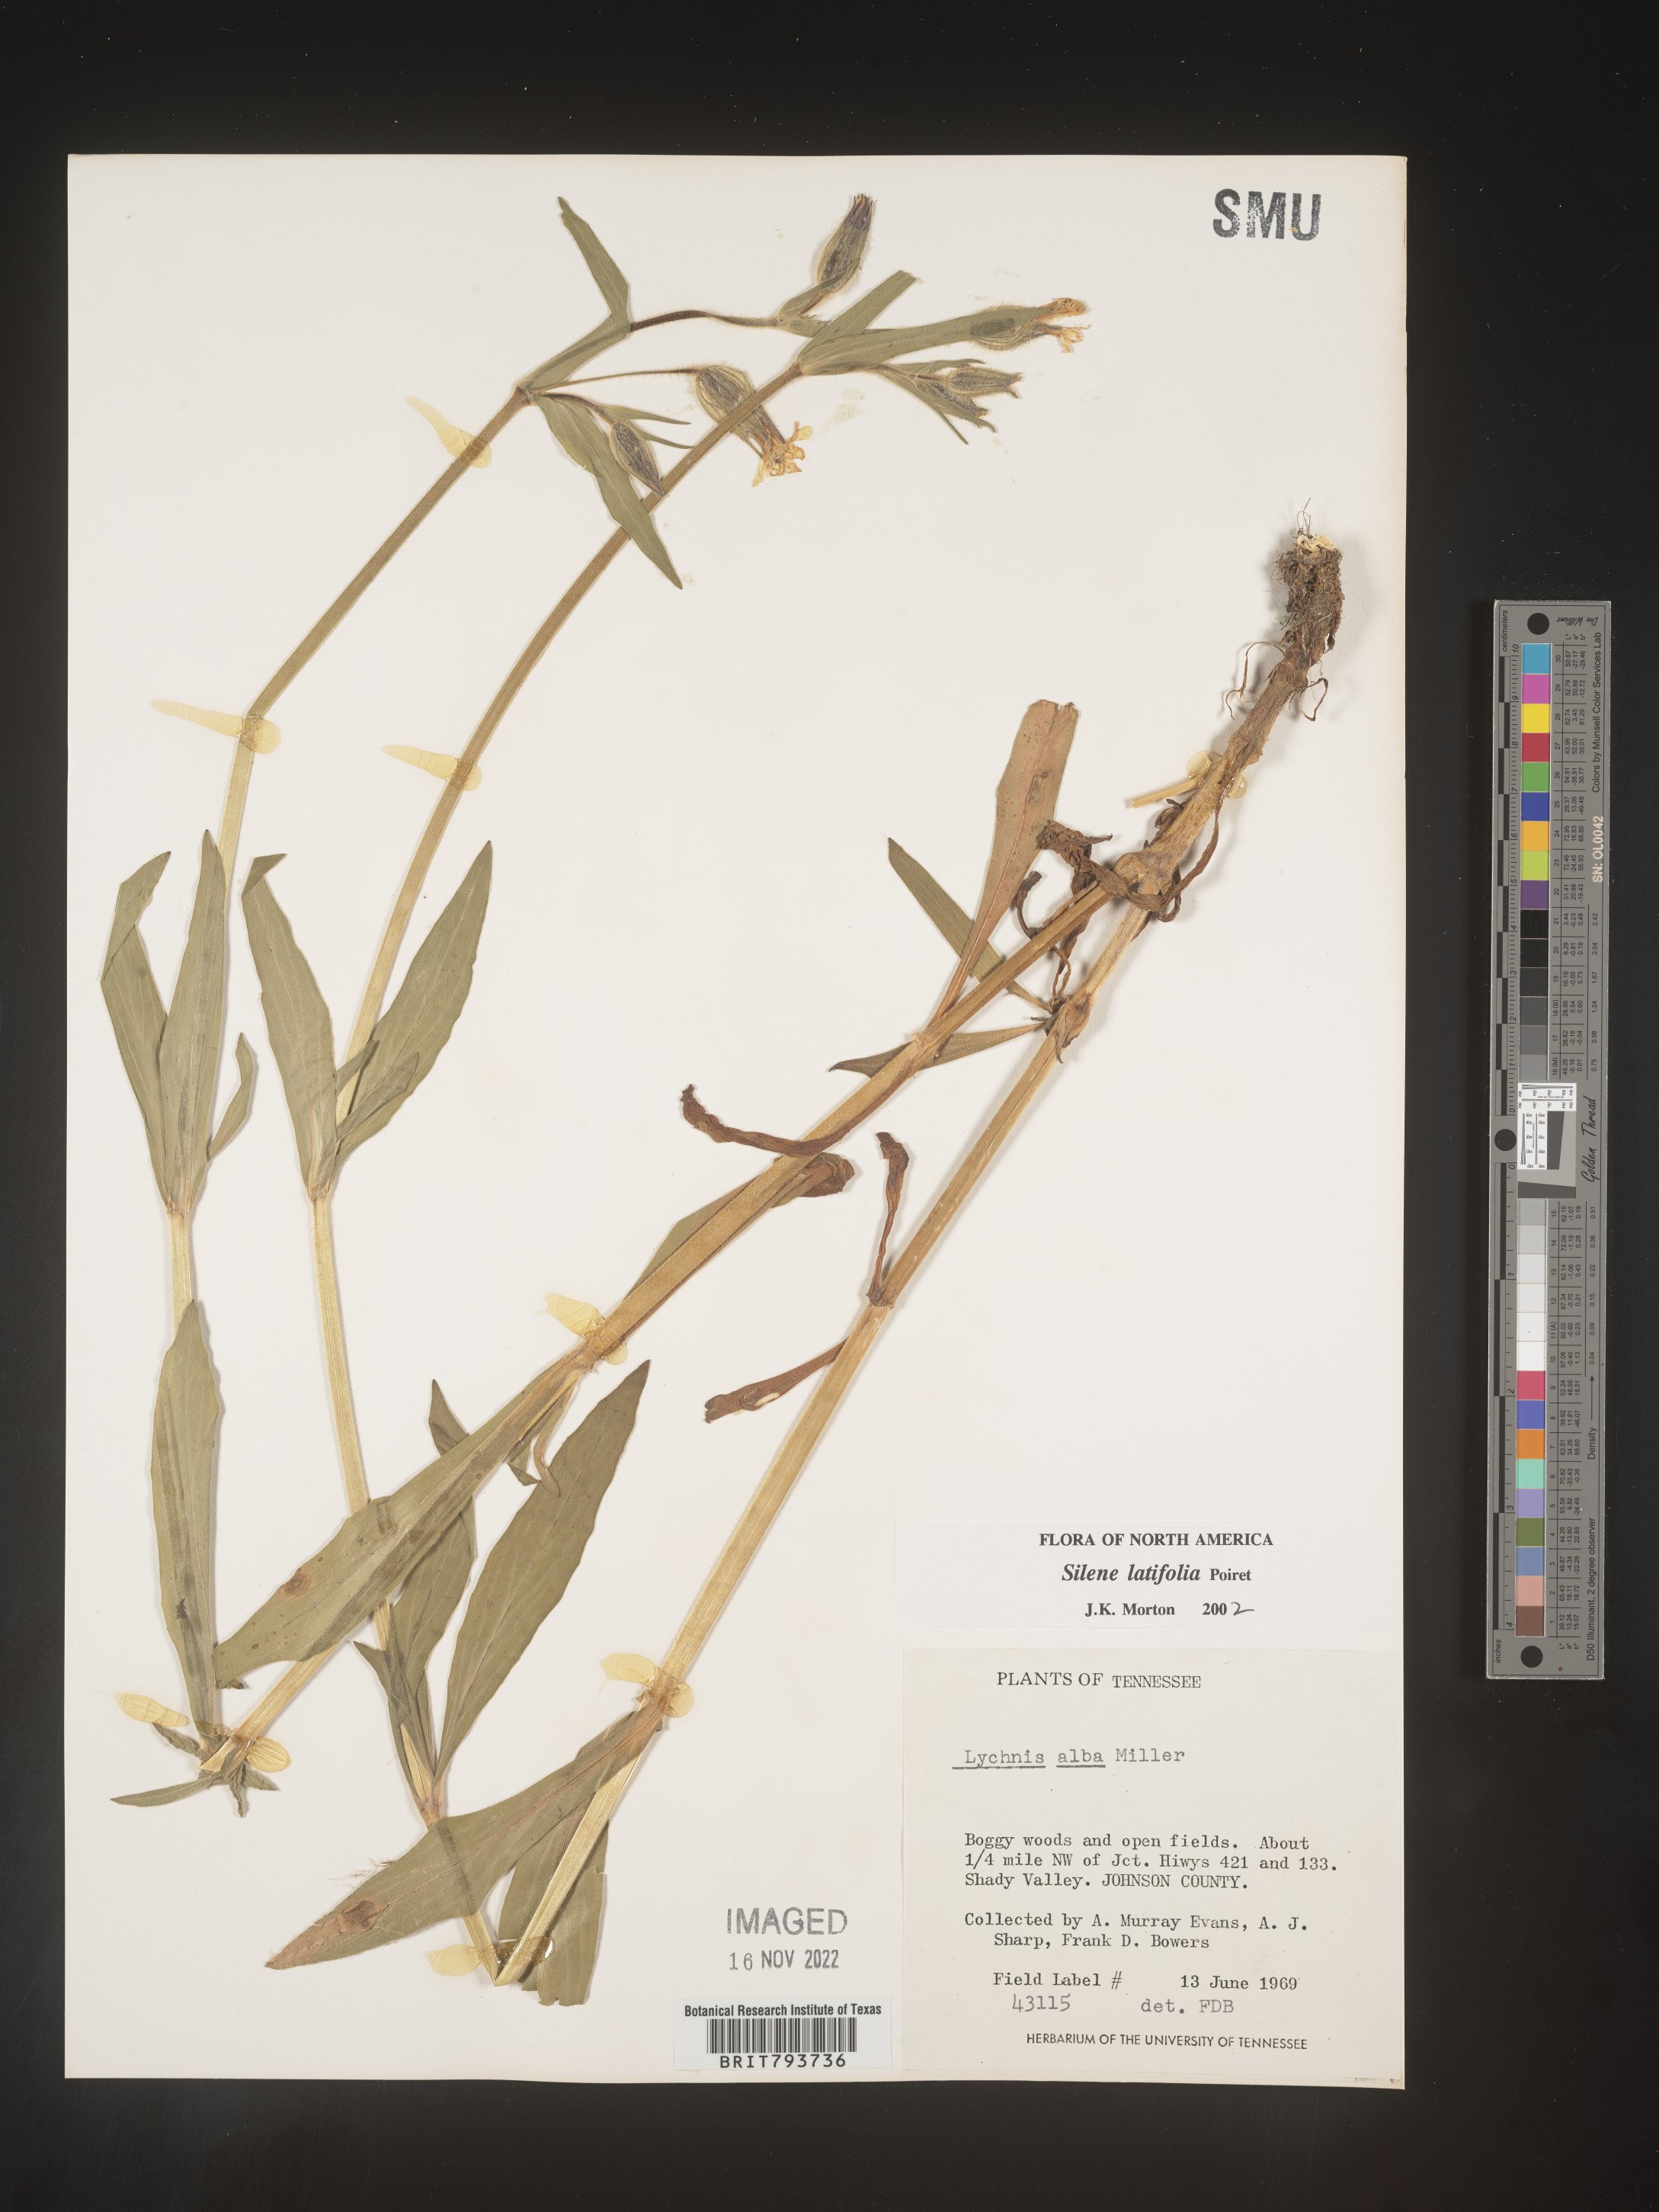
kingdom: Plantae
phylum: Tracheophyta
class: Magnoliopsida
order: Caryophyllales
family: Caryophyllaceae
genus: Silene
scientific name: Silene latifolia
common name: White campion
